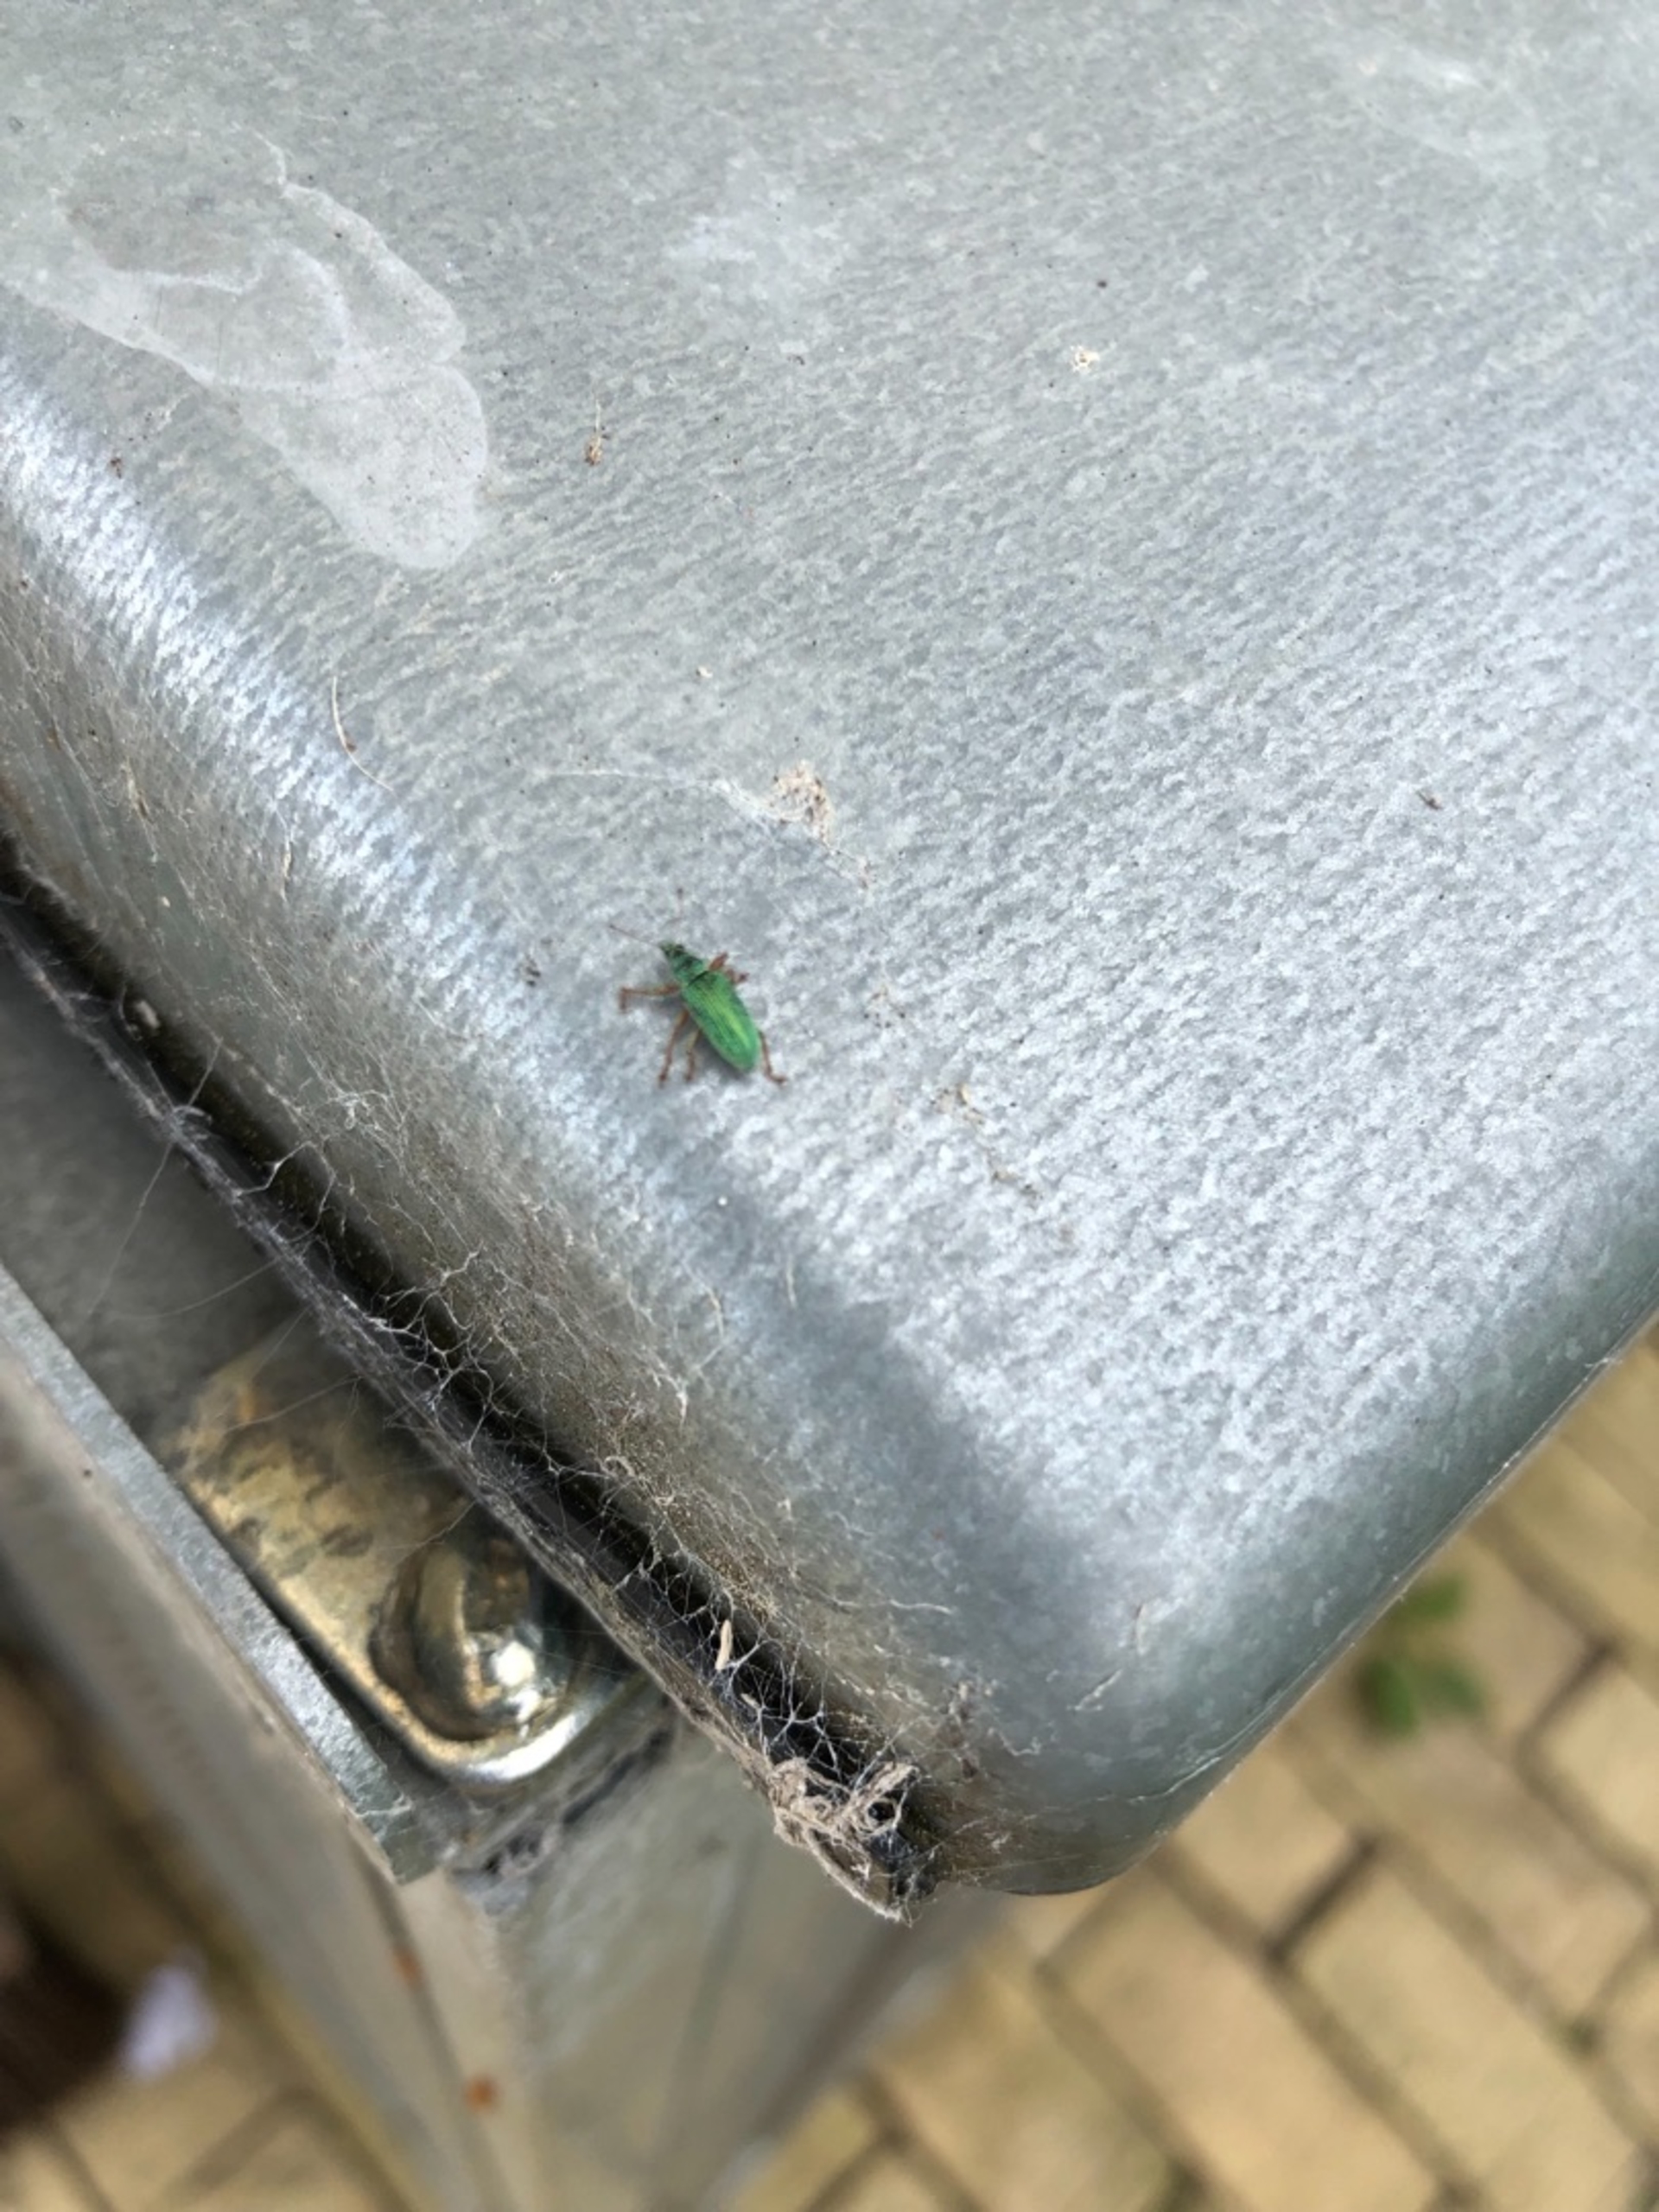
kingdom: Animalia
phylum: Arthropoda
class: Insecta
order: Coleoptera
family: Curculionidae
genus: Polydrusus
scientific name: Polydrusus formosus
